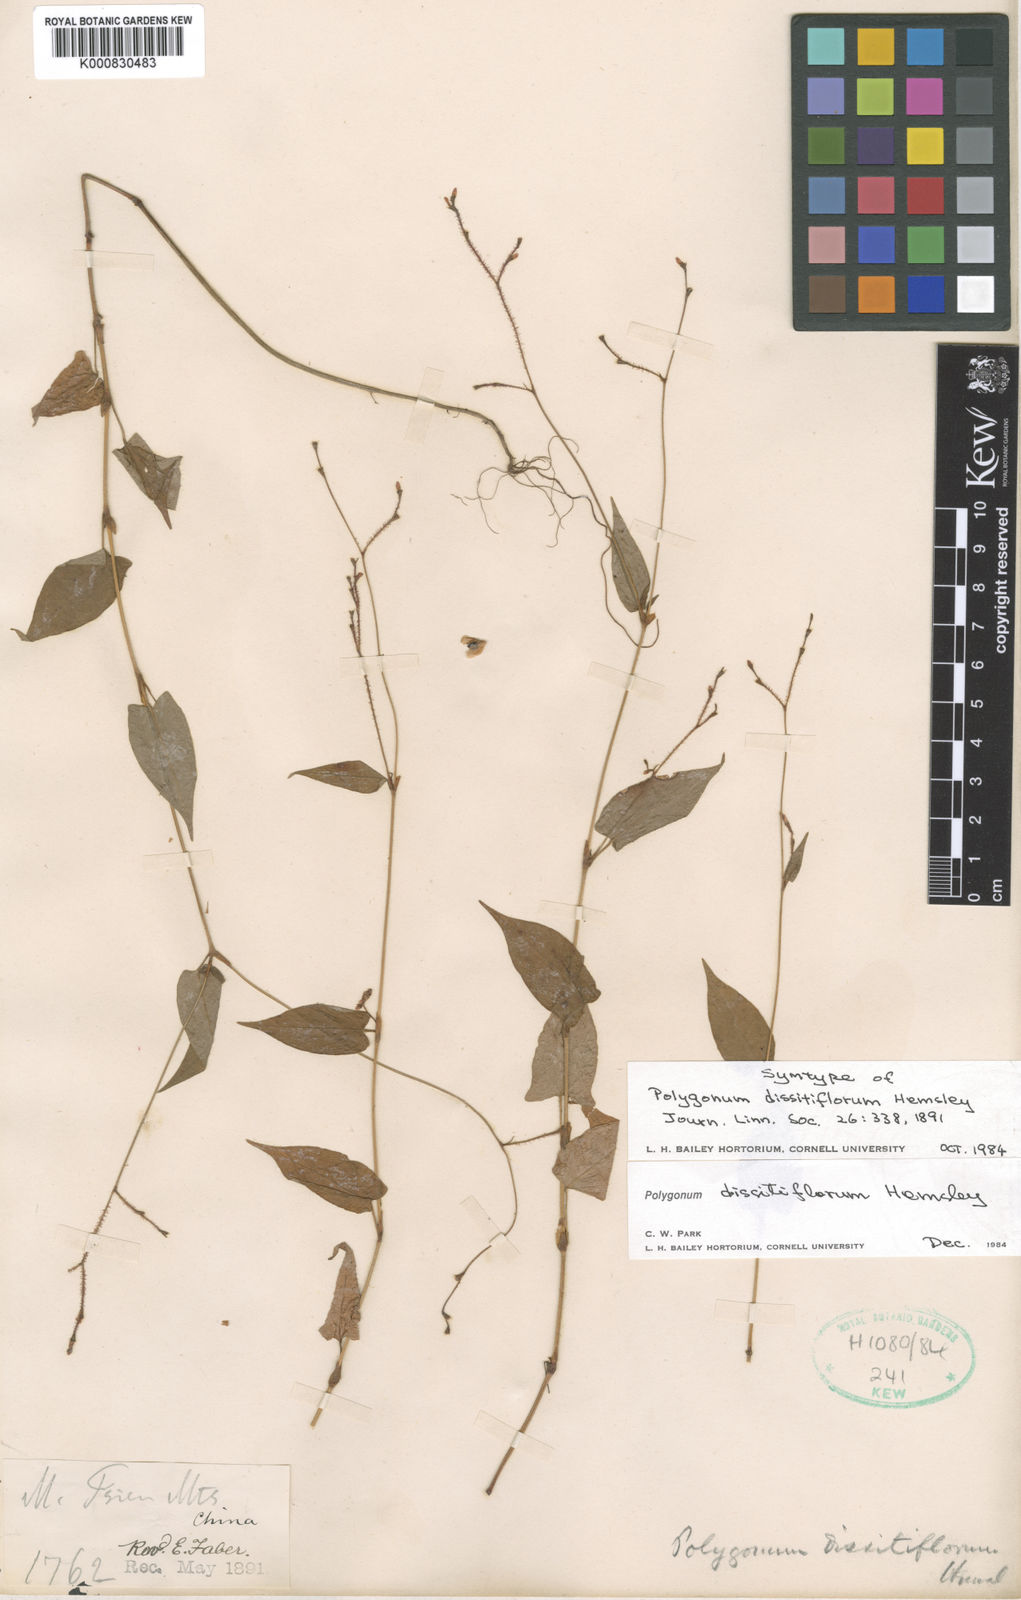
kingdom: Plantae
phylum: Tracheophyta
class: Magnoliopsida
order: Caryophyllales
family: Polygonaceae
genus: Persicaria
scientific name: Persicaria dissitiflora
